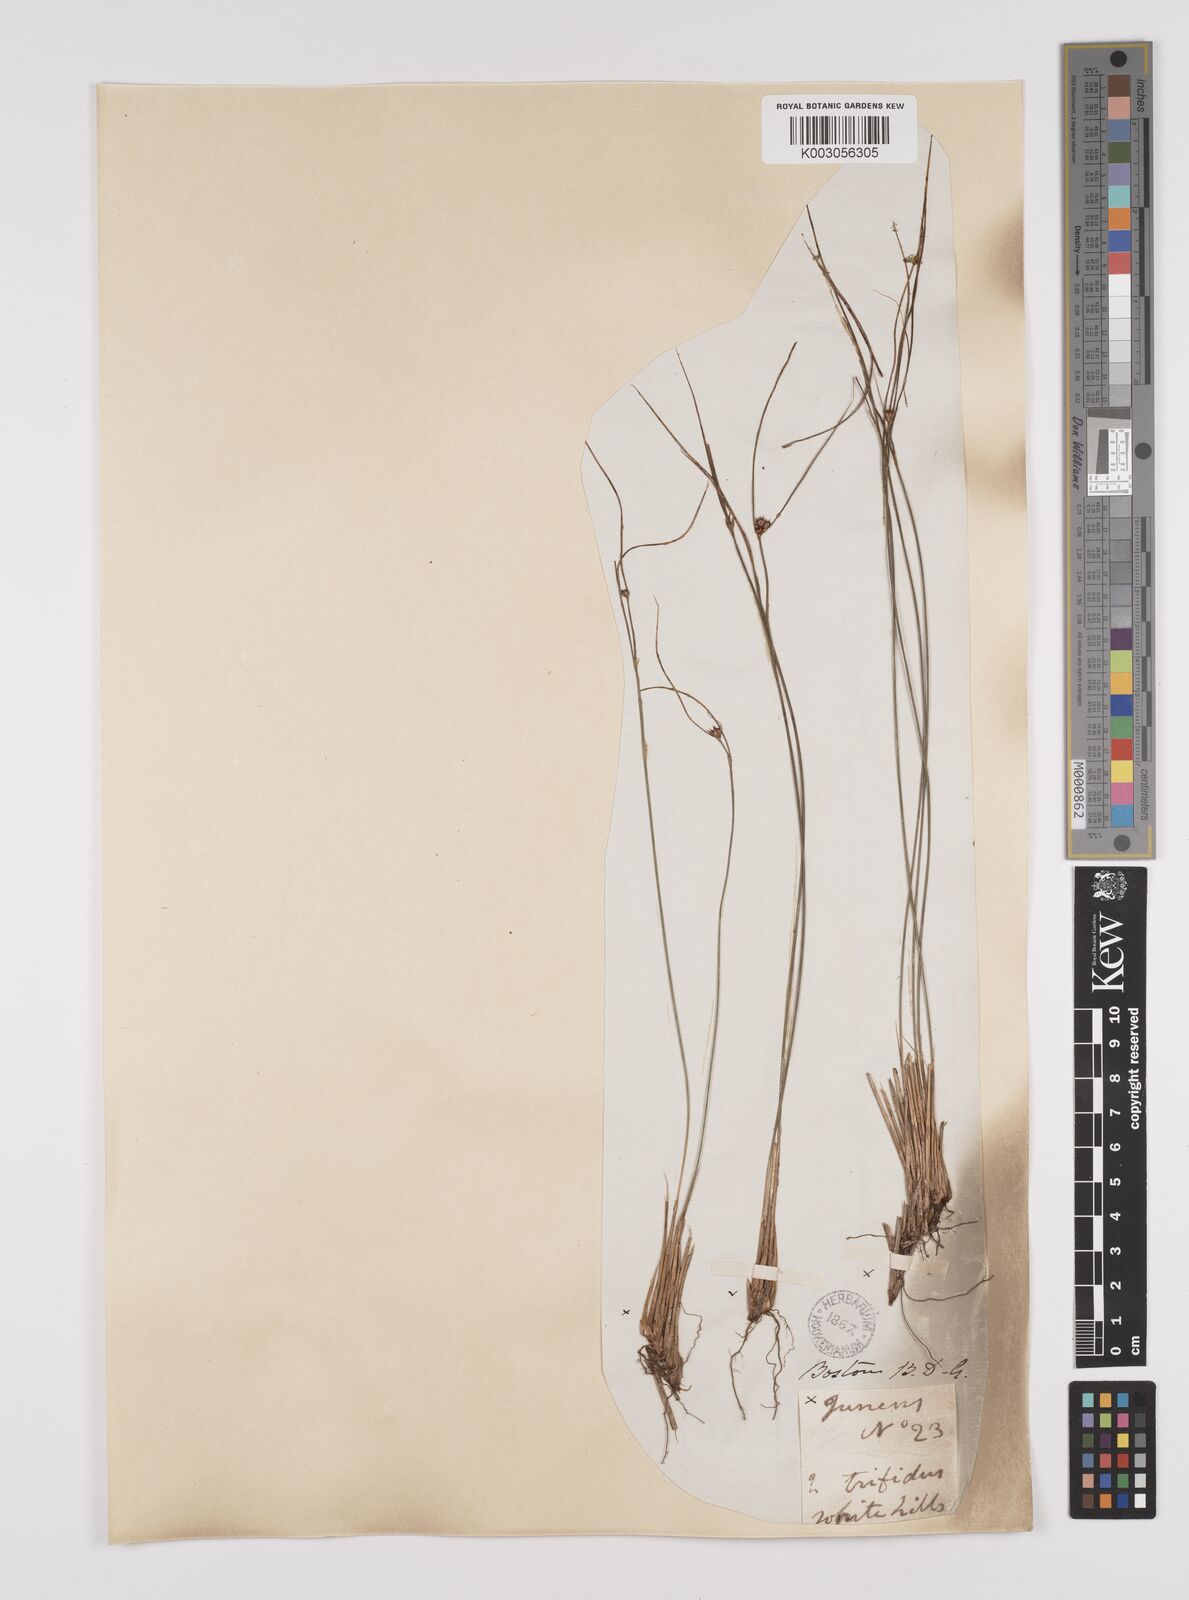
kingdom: Plantae
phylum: Tracheophyta
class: Liliopsida
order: Poales
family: Juncaceae
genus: Oreojuncus
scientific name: Oreojuncus trifidus
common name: Highland rush
